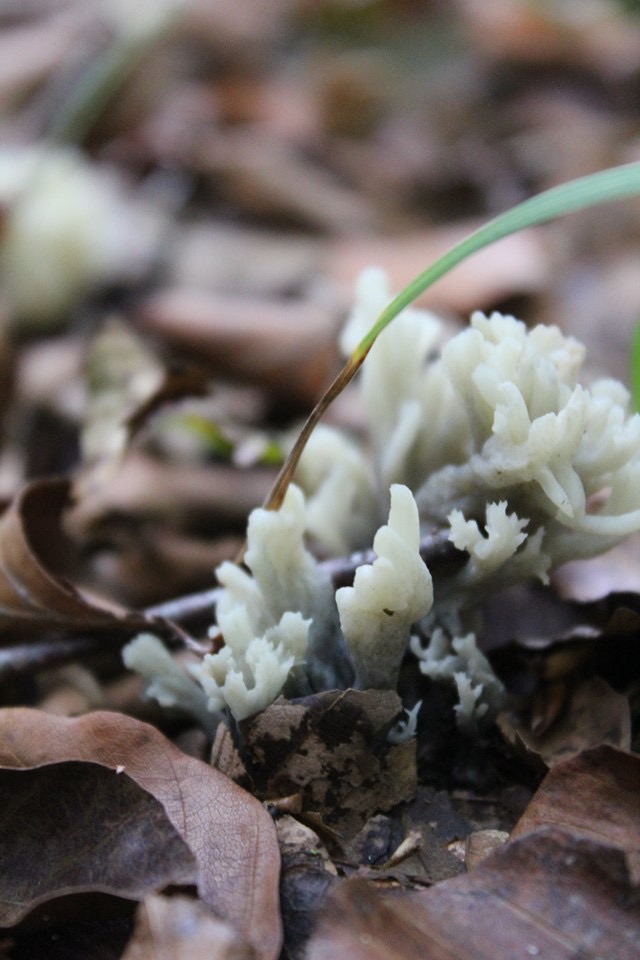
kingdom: Fungi
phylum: Ascomycota
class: Sordariomycetes
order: Sordariales
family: Helminthosphaeriaceae
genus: Helminthosphaeria
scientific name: Helminthosphaeria clavariarum
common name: trold-svampesnyltekerne
